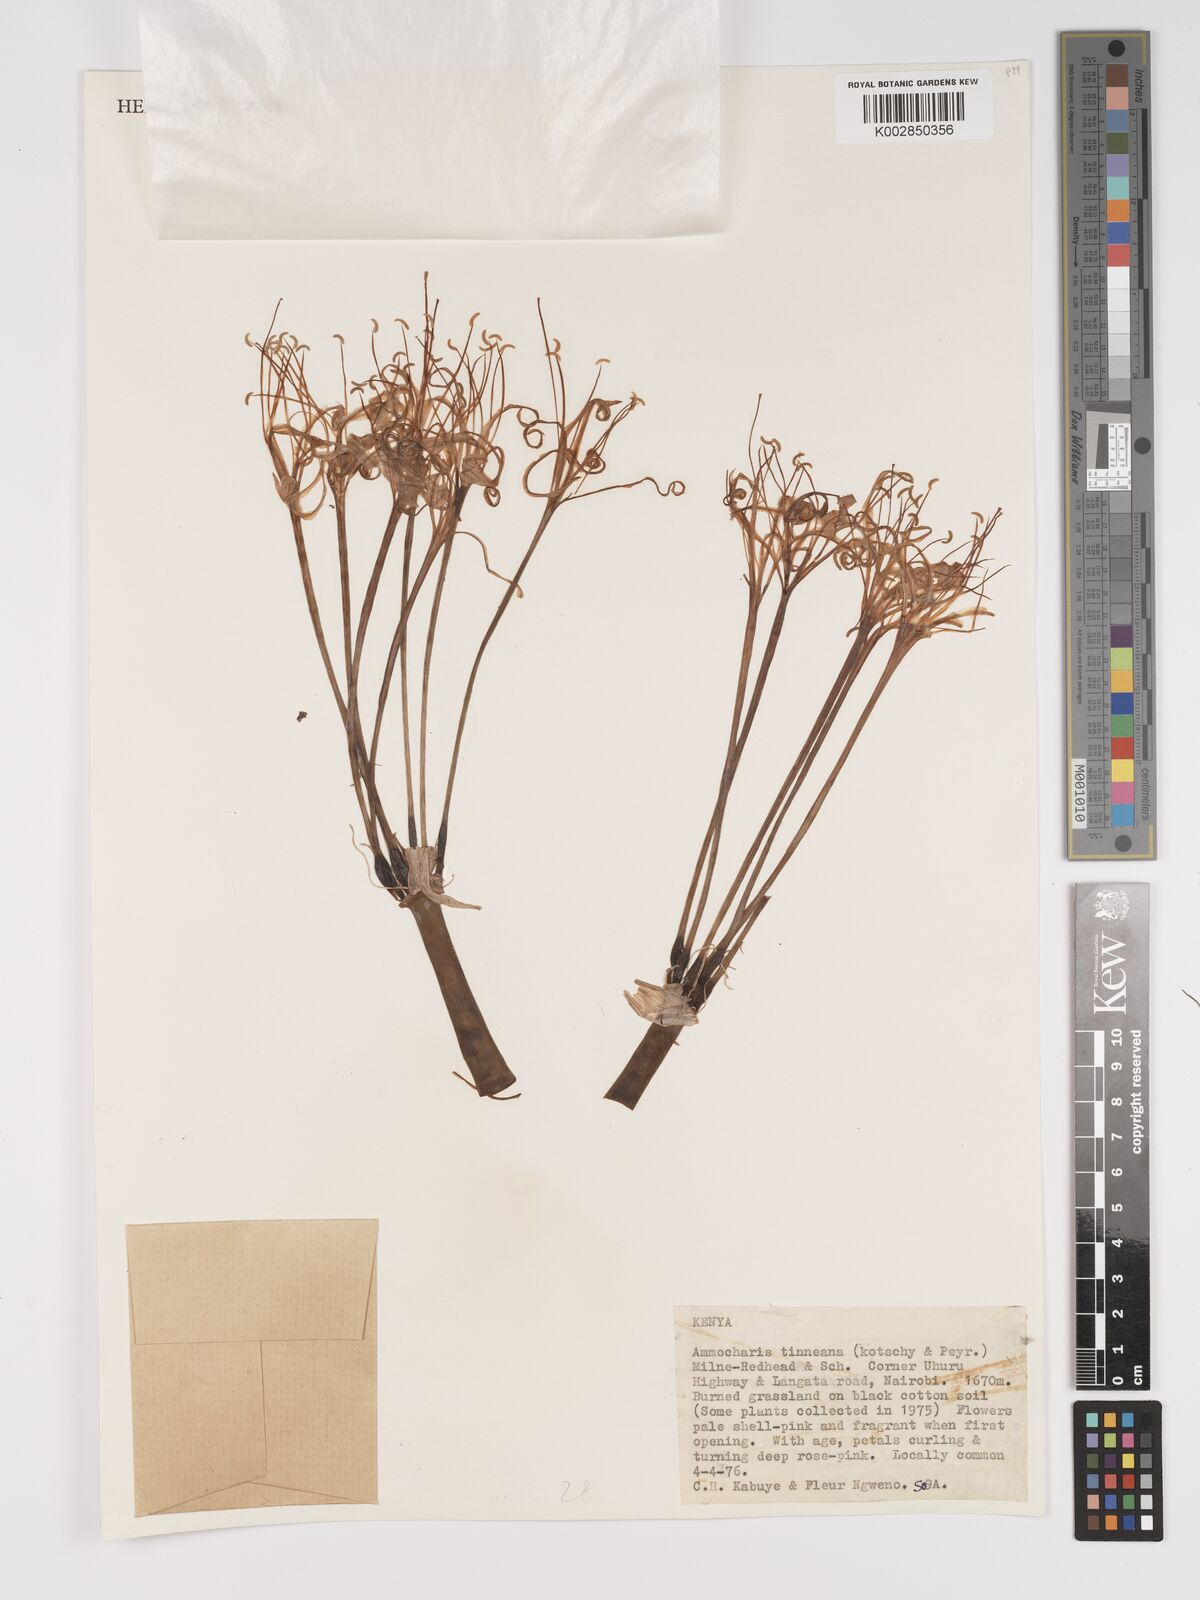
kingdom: Plantae
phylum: Tracheophyta
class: Liliopsida
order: Asparagales
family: Amaryllidaceae
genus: Ammocharis
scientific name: Ammocharis tinneana
